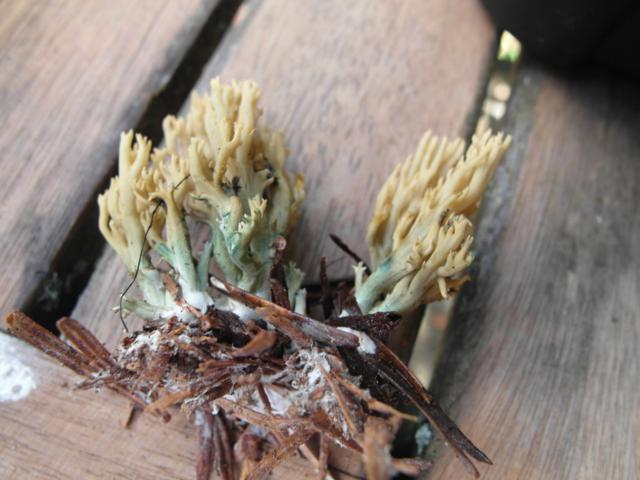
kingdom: Fungi
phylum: Basidiomycota
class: Agaricomycetes
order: Gomphales
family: Gomphaceae
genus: Phaeoclavulina
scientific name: Phaeoclavulina abietina
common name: gulgrøn koralsvamp
